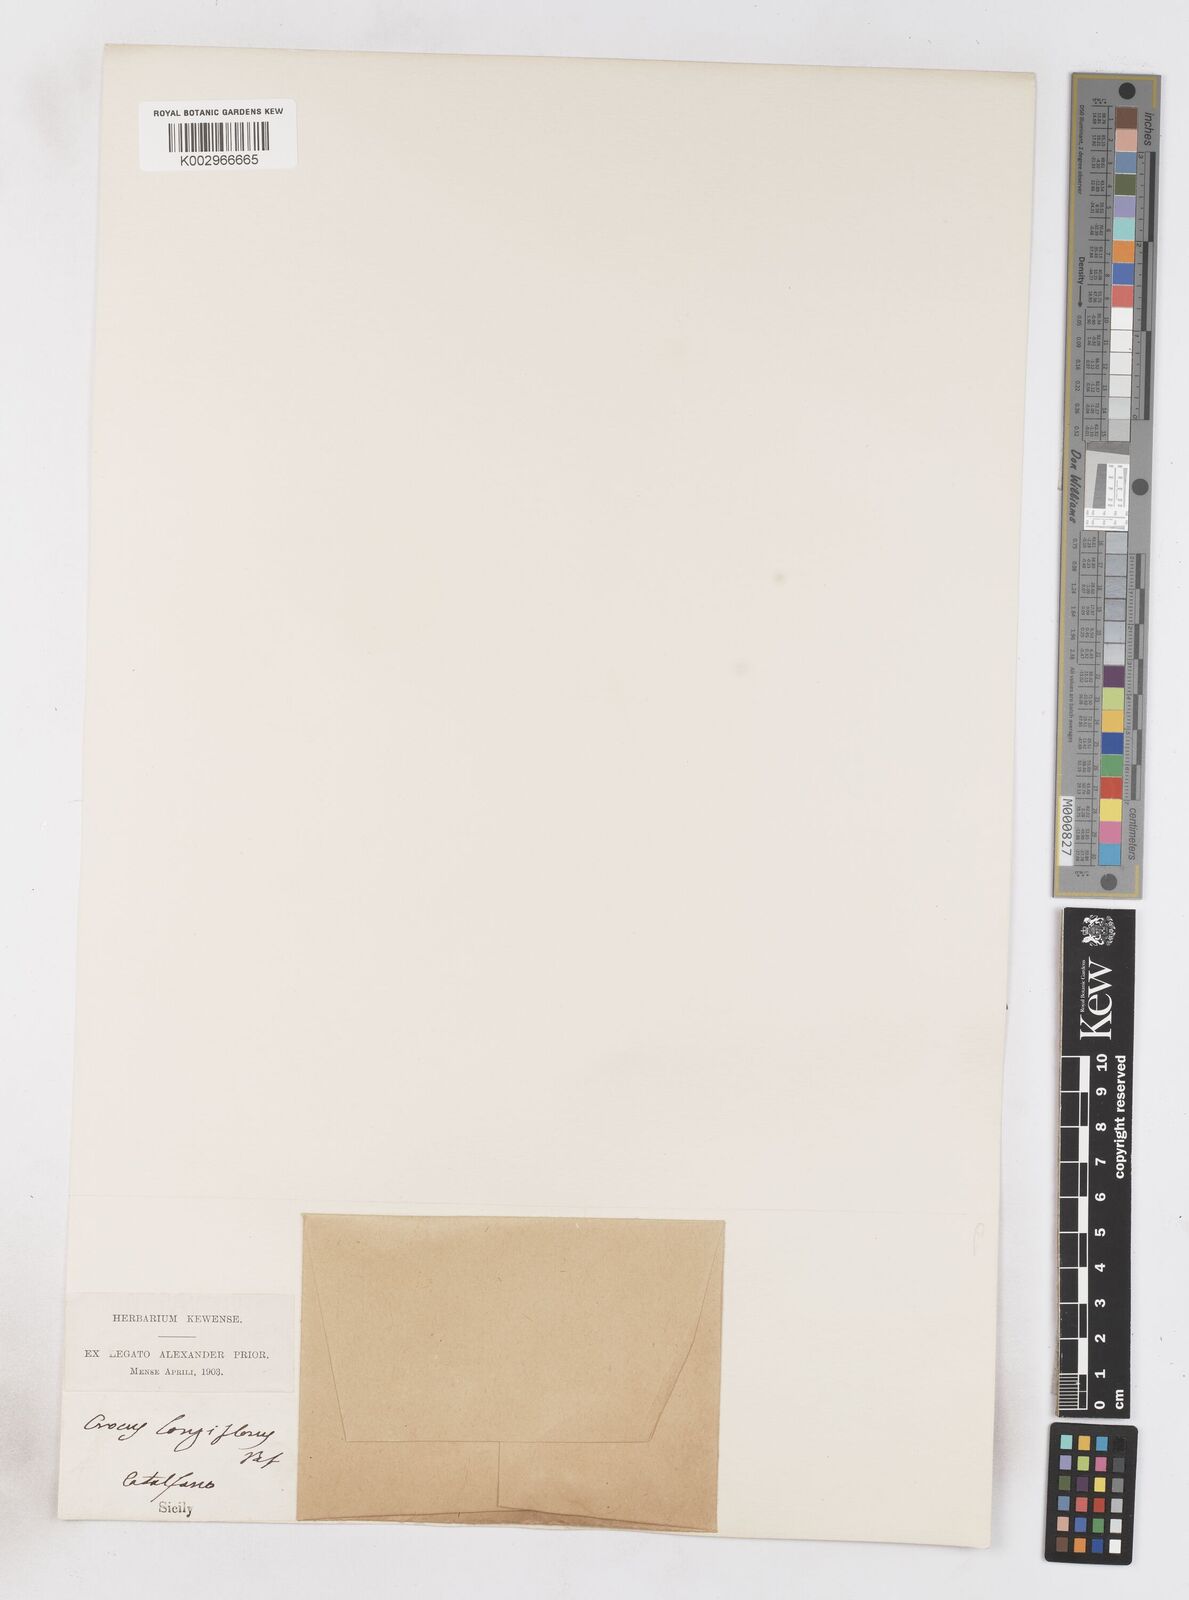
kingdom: Plantae
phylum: Tracheophyta
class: Liliopsida
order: Asparagales
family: Iridaceae
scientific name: Iridaceae
